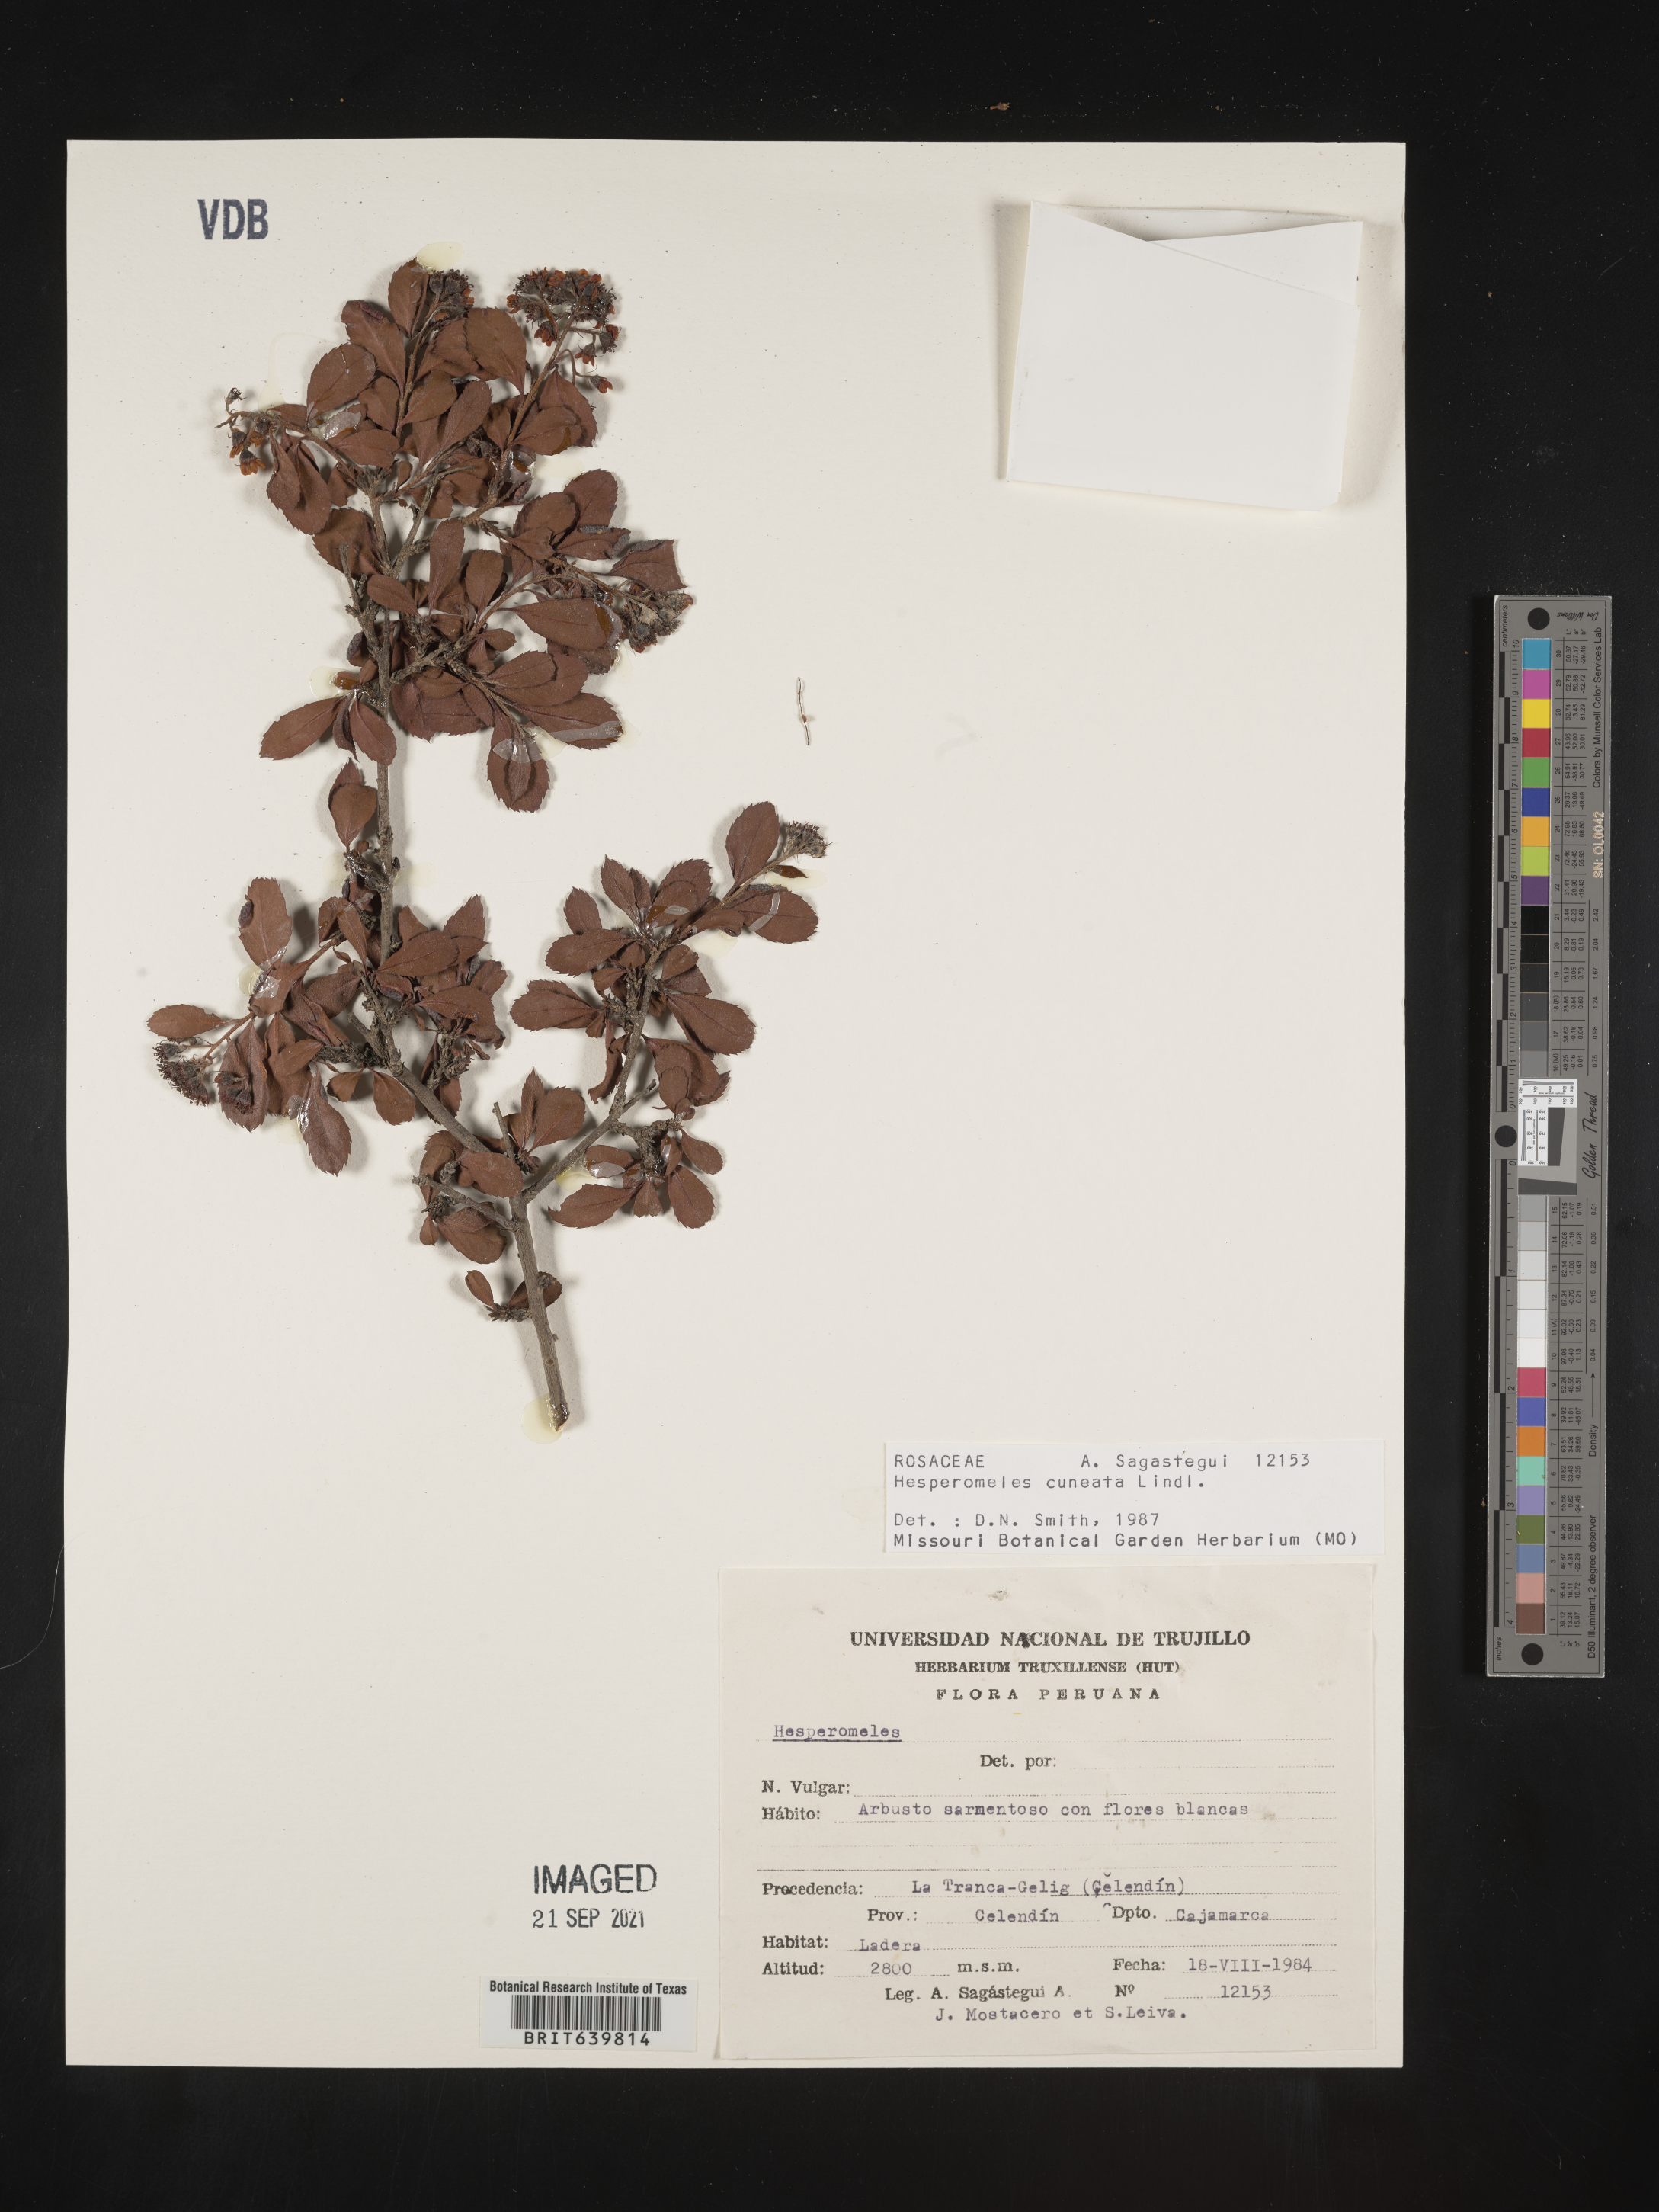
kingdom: Plantae
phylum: Tracheophyta
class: Magnoliopsida
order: Rosales
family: Rosaceae
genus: Hesperomeles
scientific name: Hesperomeles
